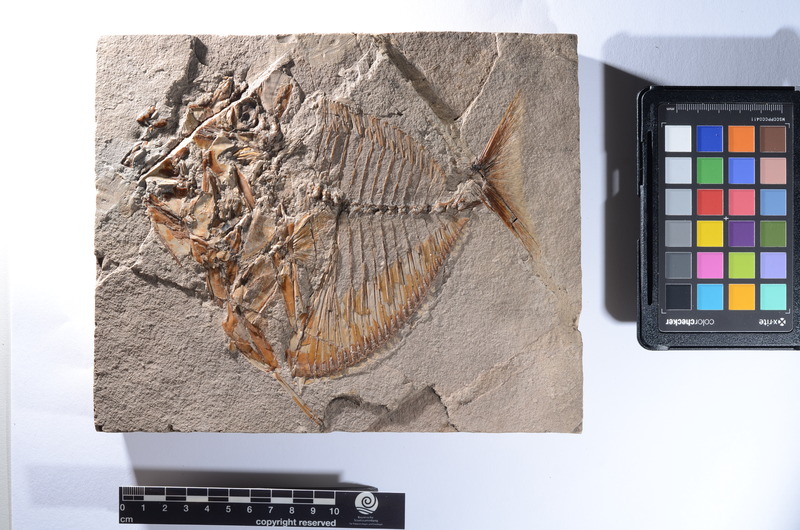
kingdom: Animalia
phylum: Chordata
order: Perciformes
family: Menidae
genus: Mene
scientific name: Mene rhombea
